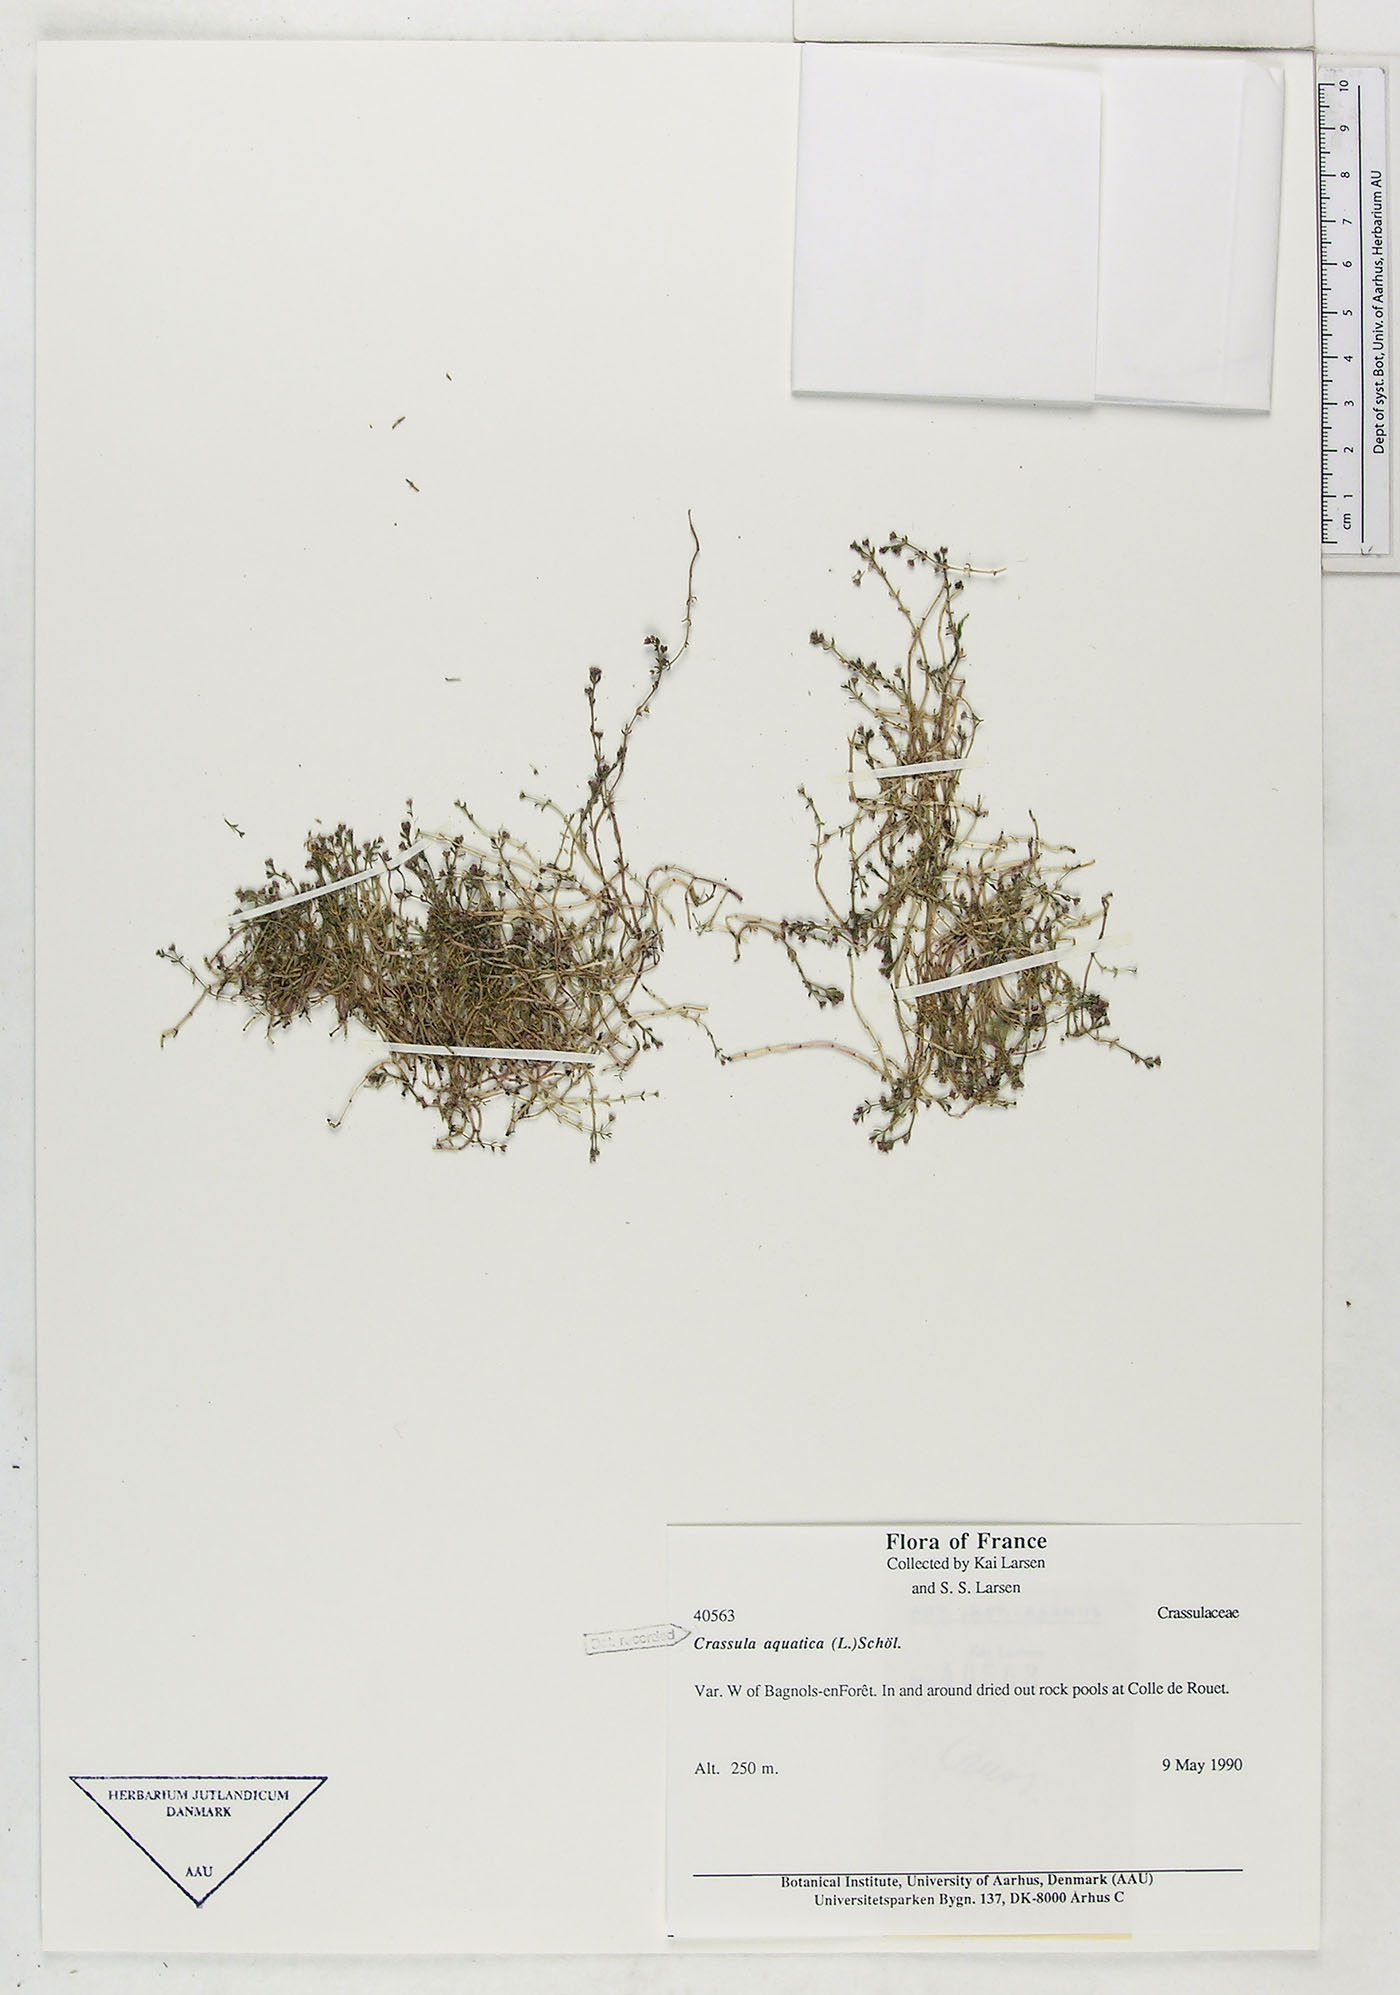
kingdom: Plantae
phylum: Tracheophyta
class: Magnoliopsida
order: Saxifragales
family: Crassulaceae
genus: Crassula
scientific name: Crassula vaillantii
